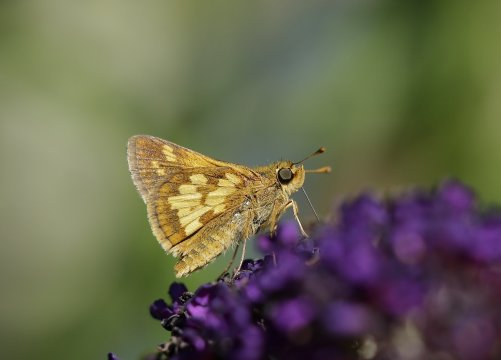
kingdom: Animalia
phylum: Arthropoda
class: Insecta
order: Lepidoptera
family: Hesperiidae
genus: Polites
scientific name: Polites coras
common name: Peck's Skipper
